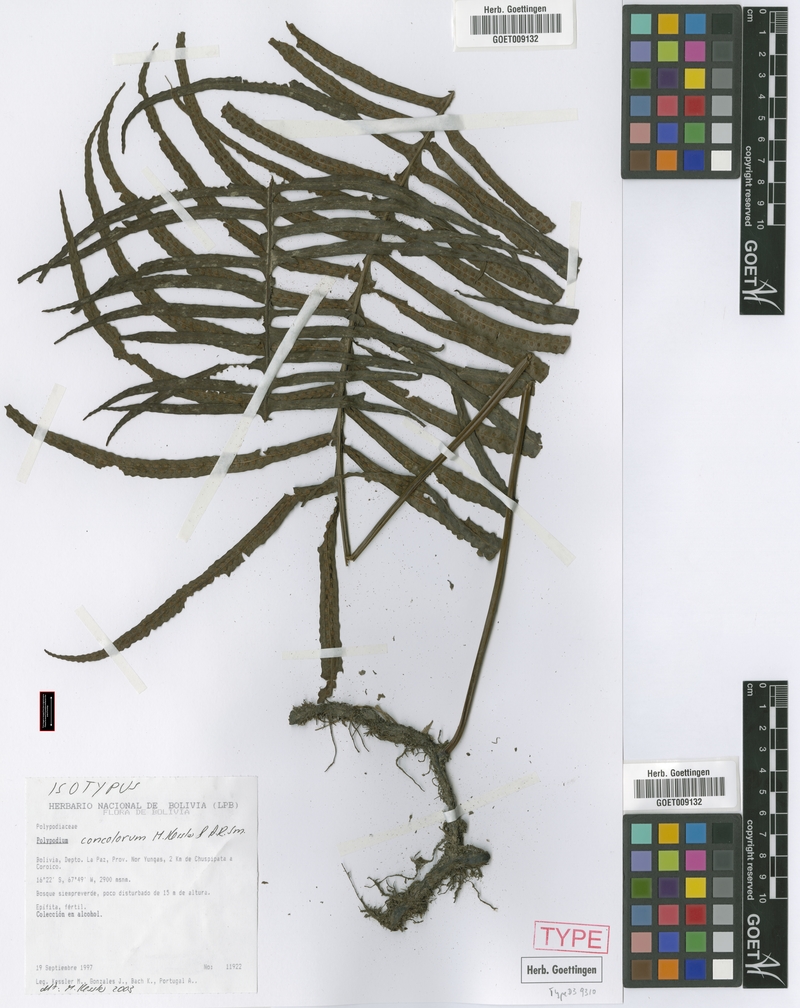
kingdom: Plantae
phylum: Tracheophyta
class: Polypodiopsida
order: Polypodiales
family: Polypodiaceae
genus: Serpocaulon
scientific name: Serpocaulon concolorum
